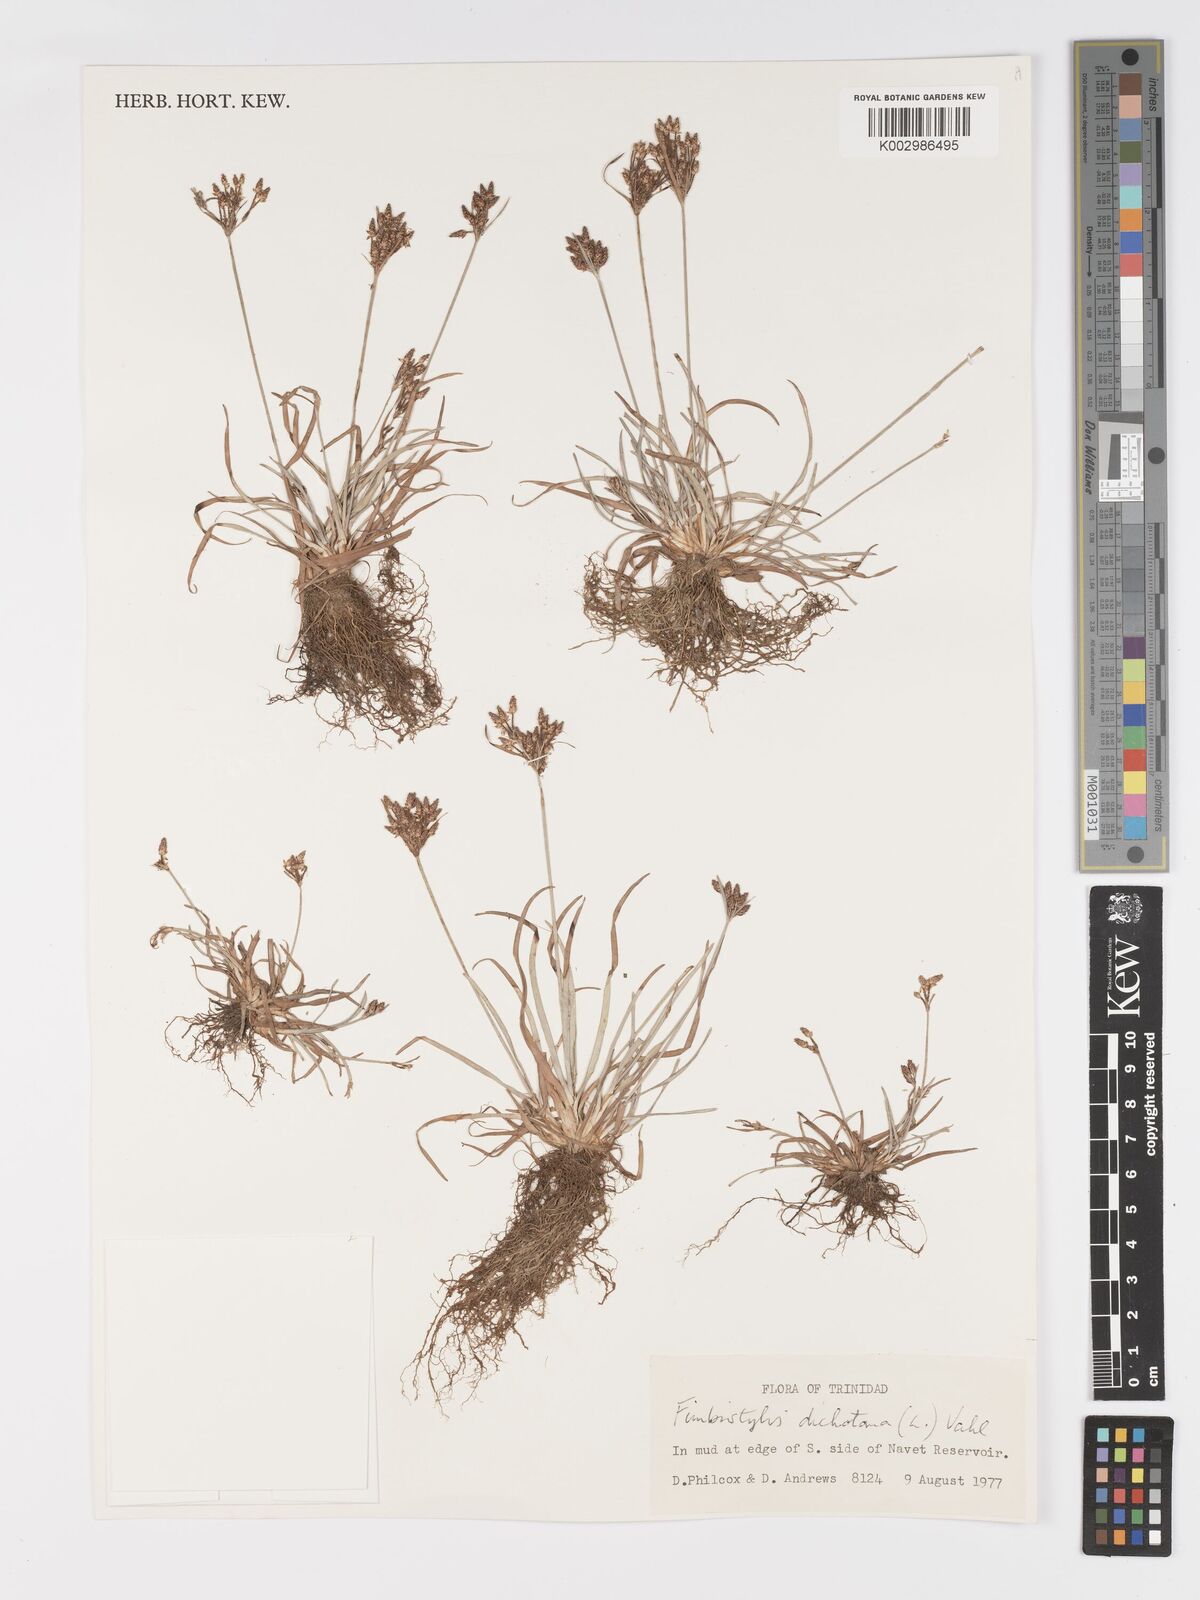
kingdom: Plantae
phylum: Tracheophyta
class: Liliopsida
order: Poales
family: Cyperaceae
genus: Fimbristylis
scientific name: Fimbristylis dichotoma
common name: Forked fimbry
